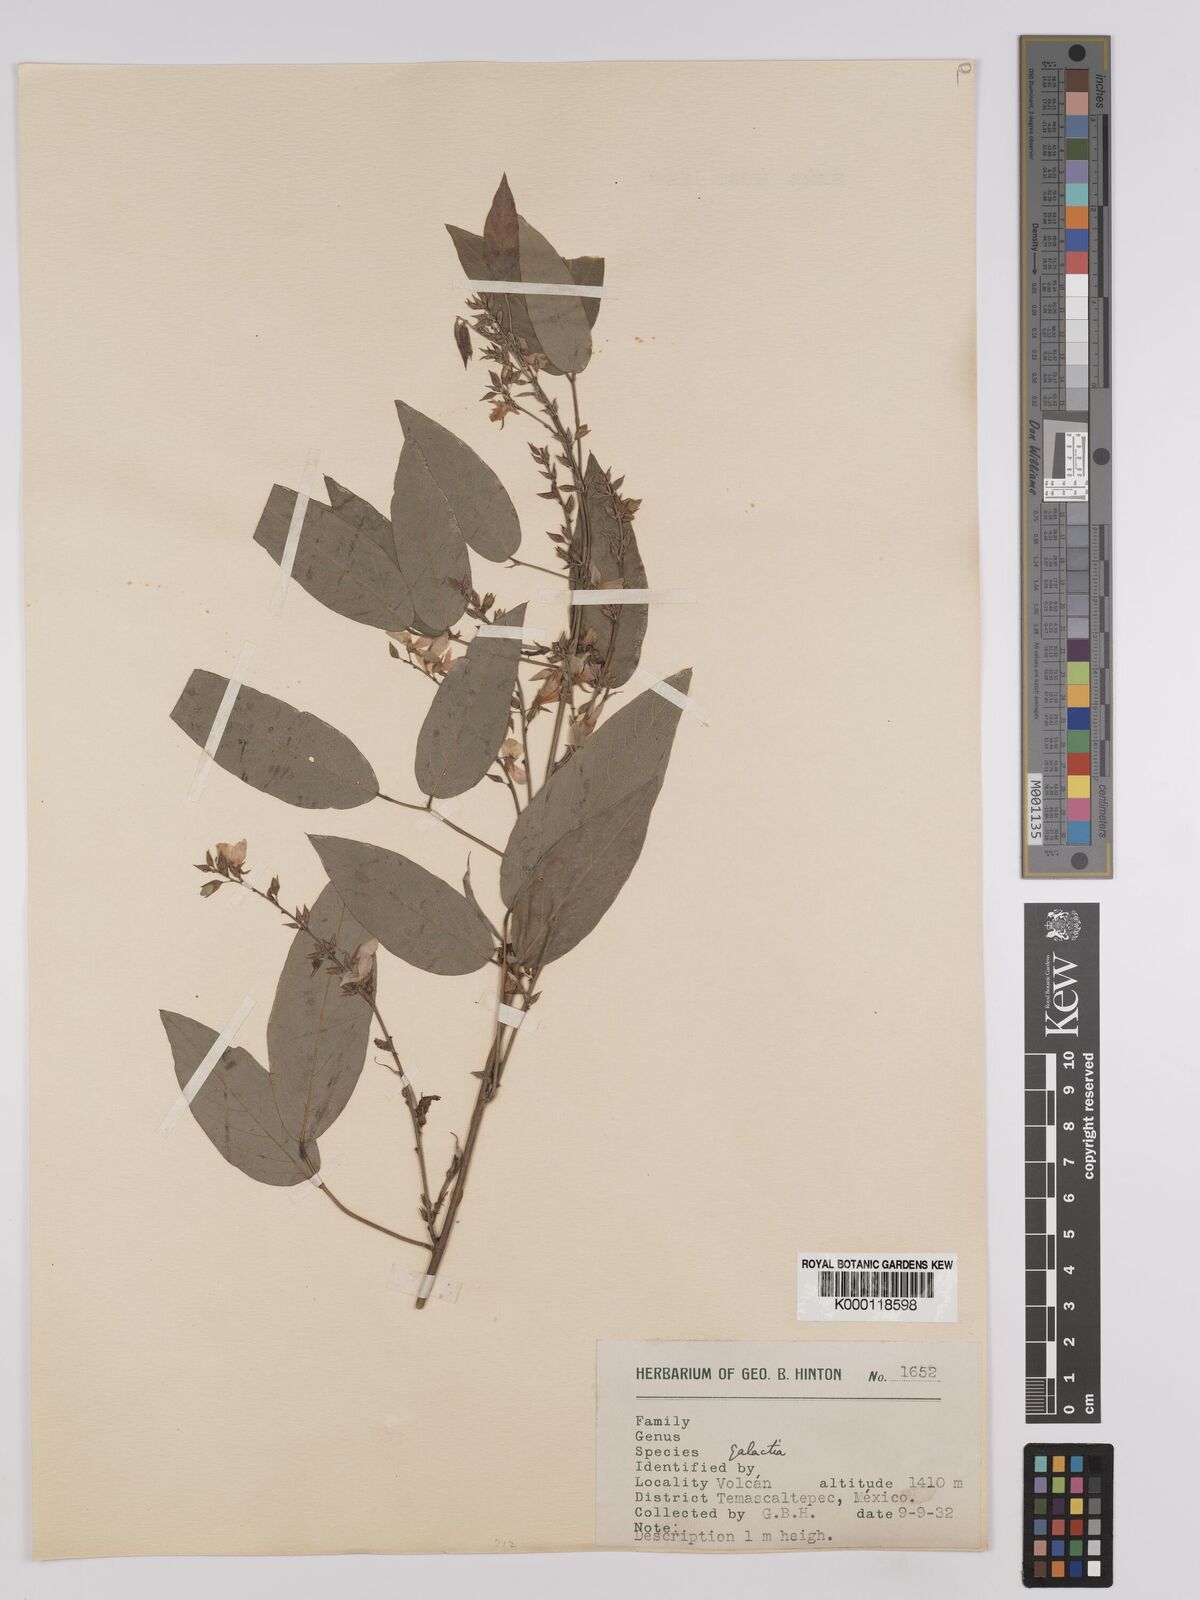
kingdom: Plantae
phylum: Tracheophyta
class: Magnoliopsida
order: Fabales
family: Fabaceae
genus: Galactia
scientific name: Galactia incana
